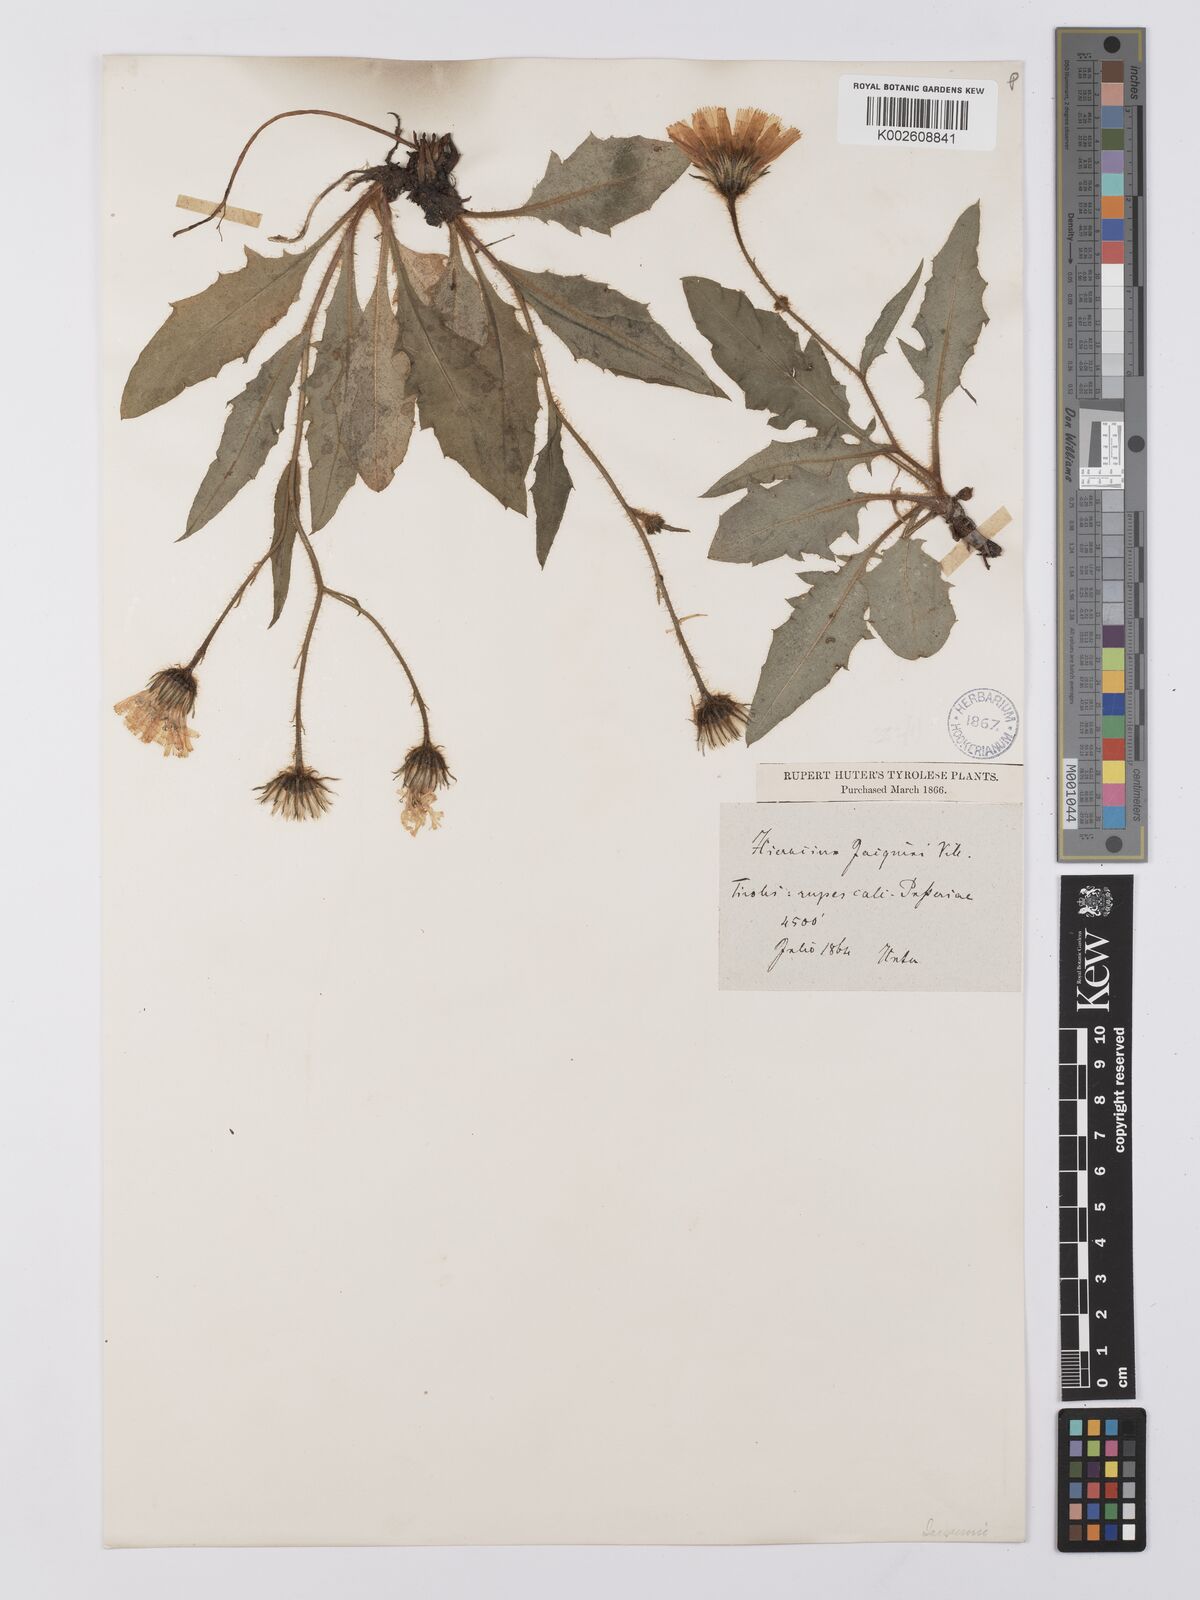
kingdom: Plantae
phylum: Tracheophyta
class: Magnoliopsida
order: Asterales
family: Asteraceae
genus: Hieracium
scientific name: Hieracium balbisianum
